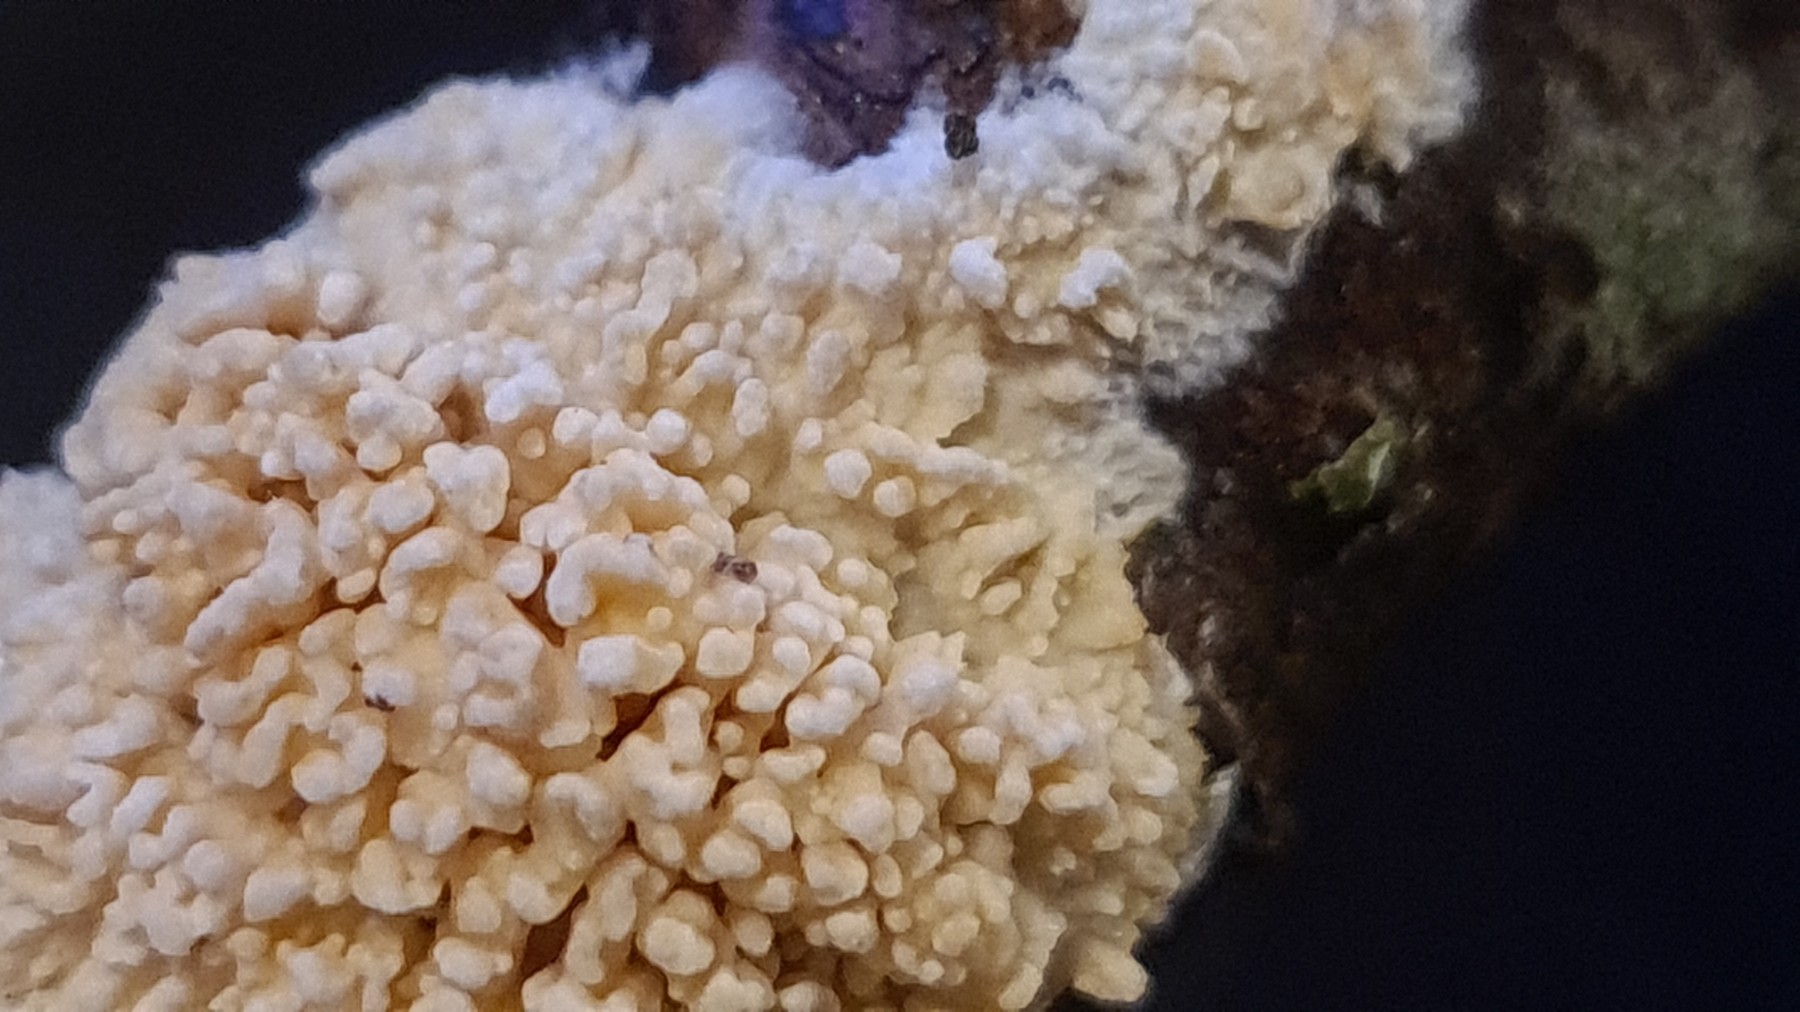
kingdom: Fungi
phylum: Basidiomycota
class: Agaricomycetes
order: Hymenochaetales
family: Schizoporaceae
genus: Xylodon
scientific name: Xylodon radula
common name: grovtandet kalkskind
